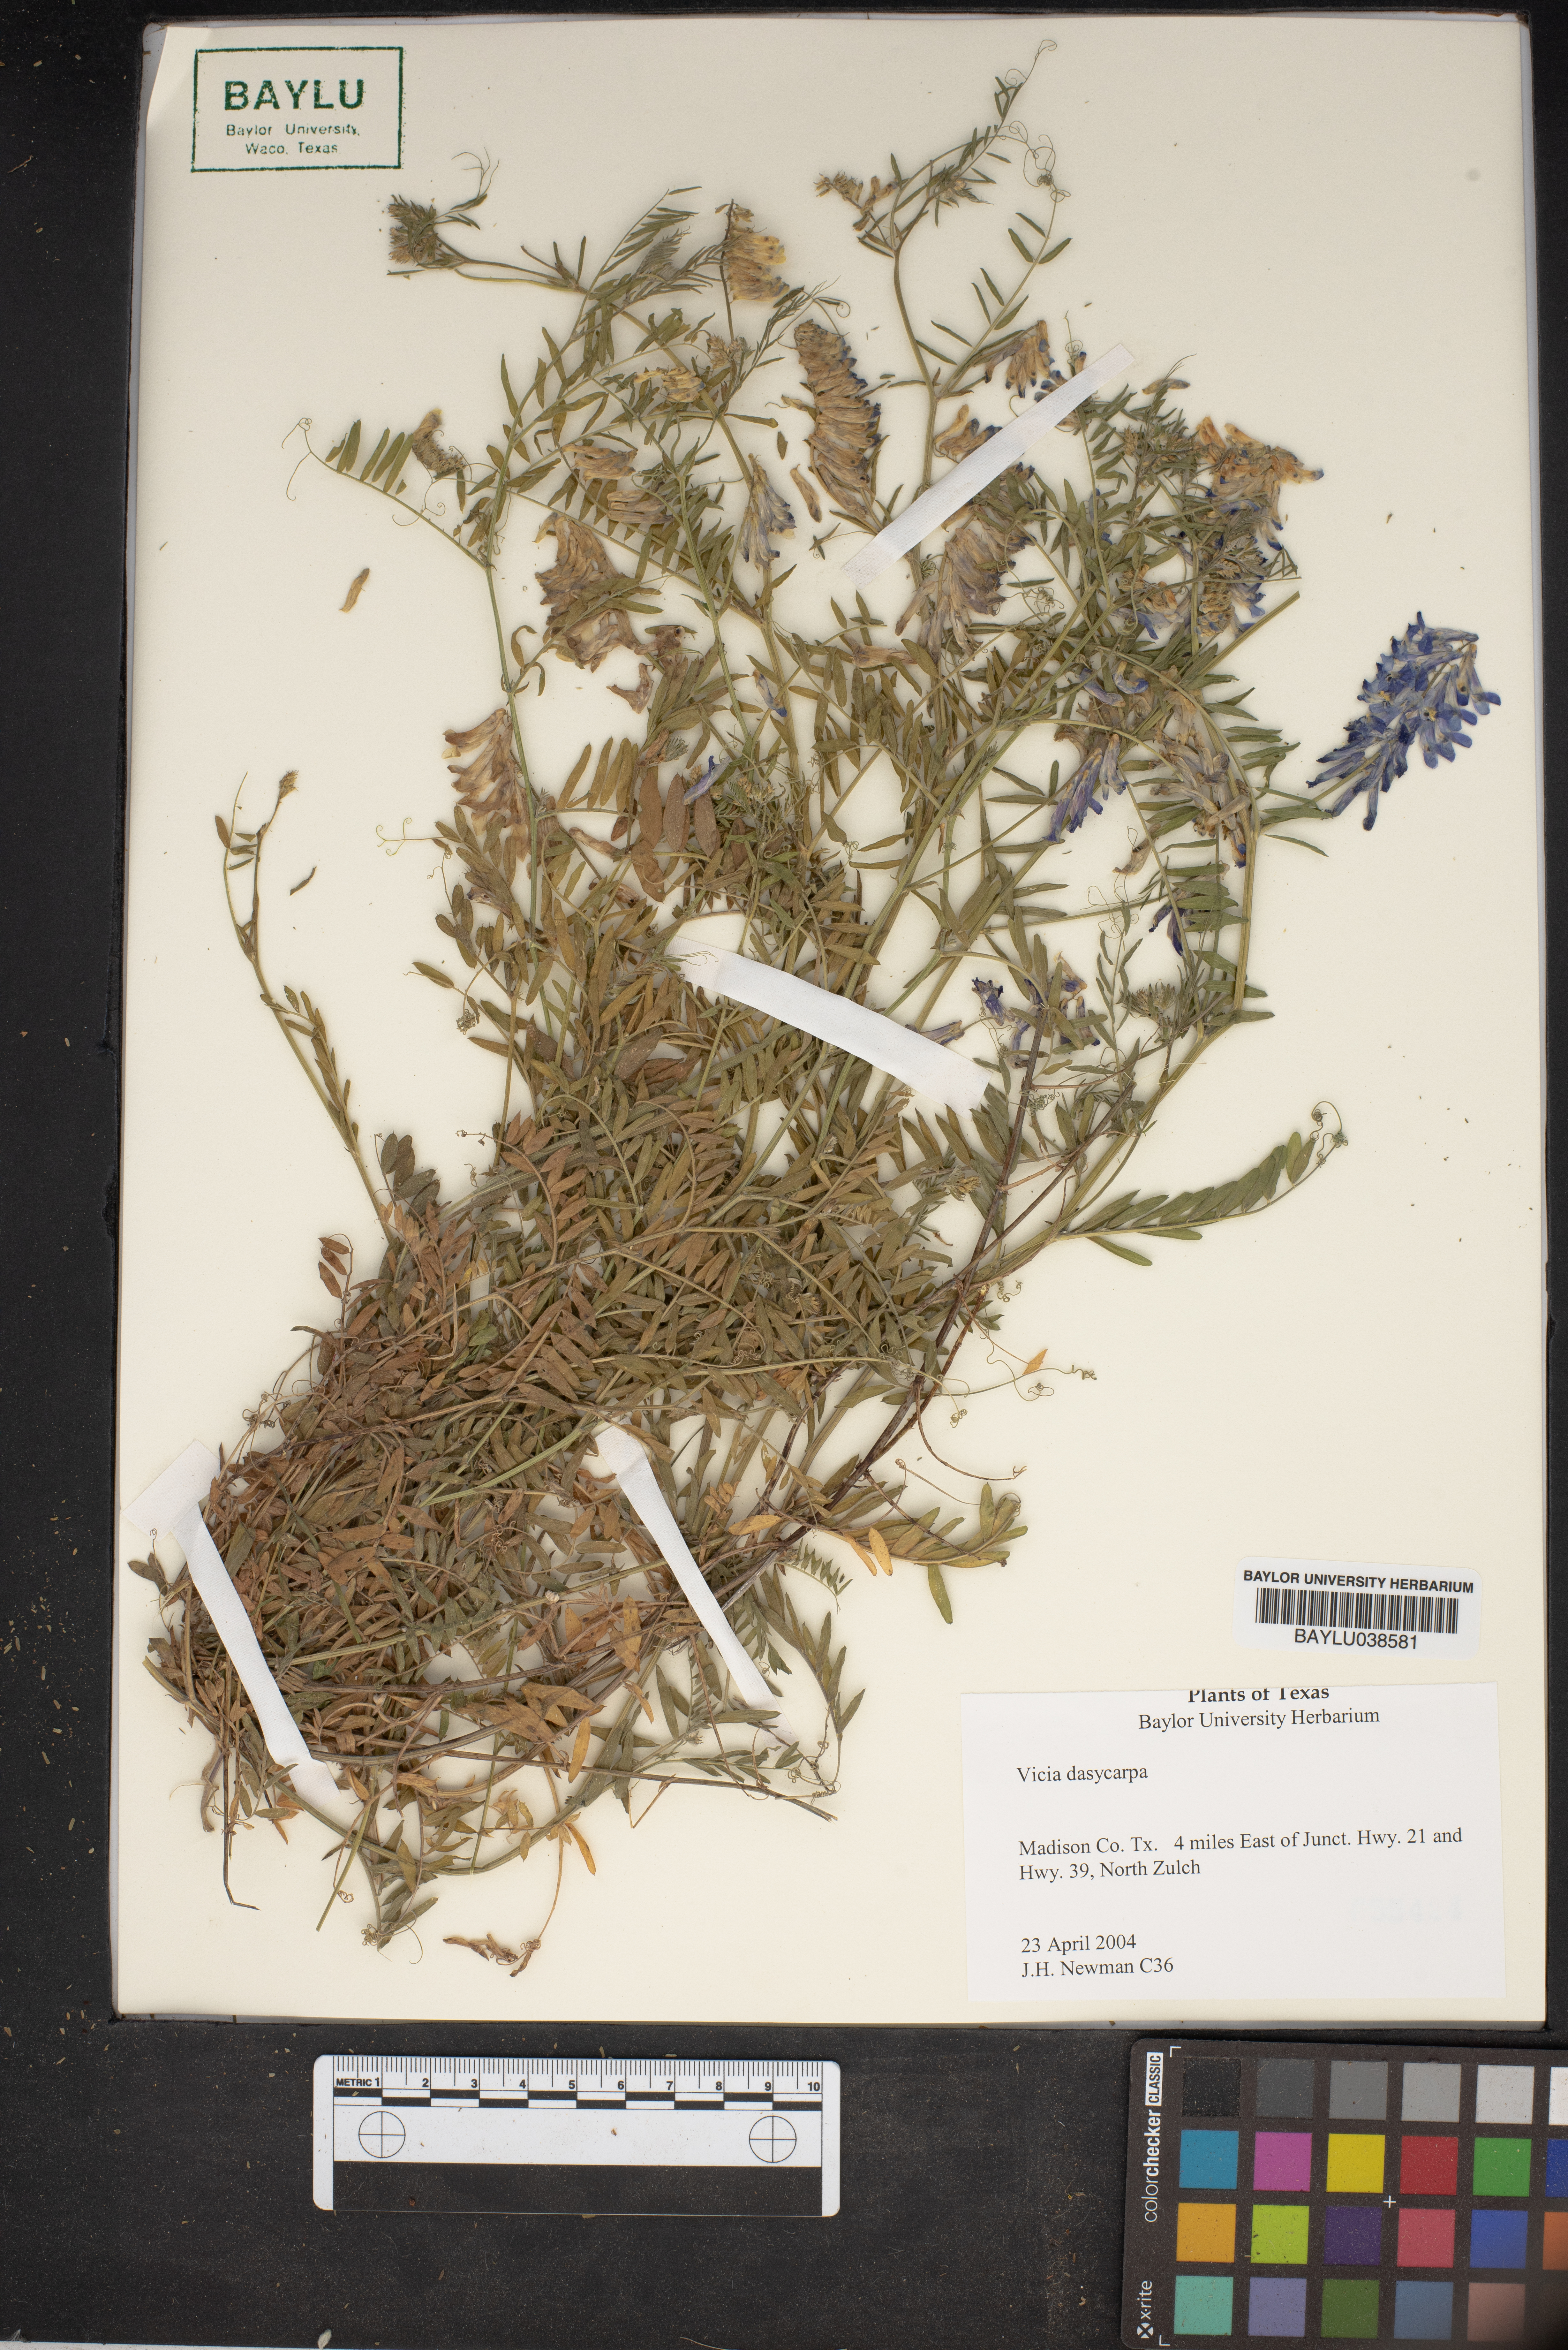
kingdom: Plantae
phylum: Tracheophyta
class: Magnoliopsida
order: Fabales
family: Fabaceae
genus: Vicia
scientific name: Vicia villosa
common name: Fodder vetch
